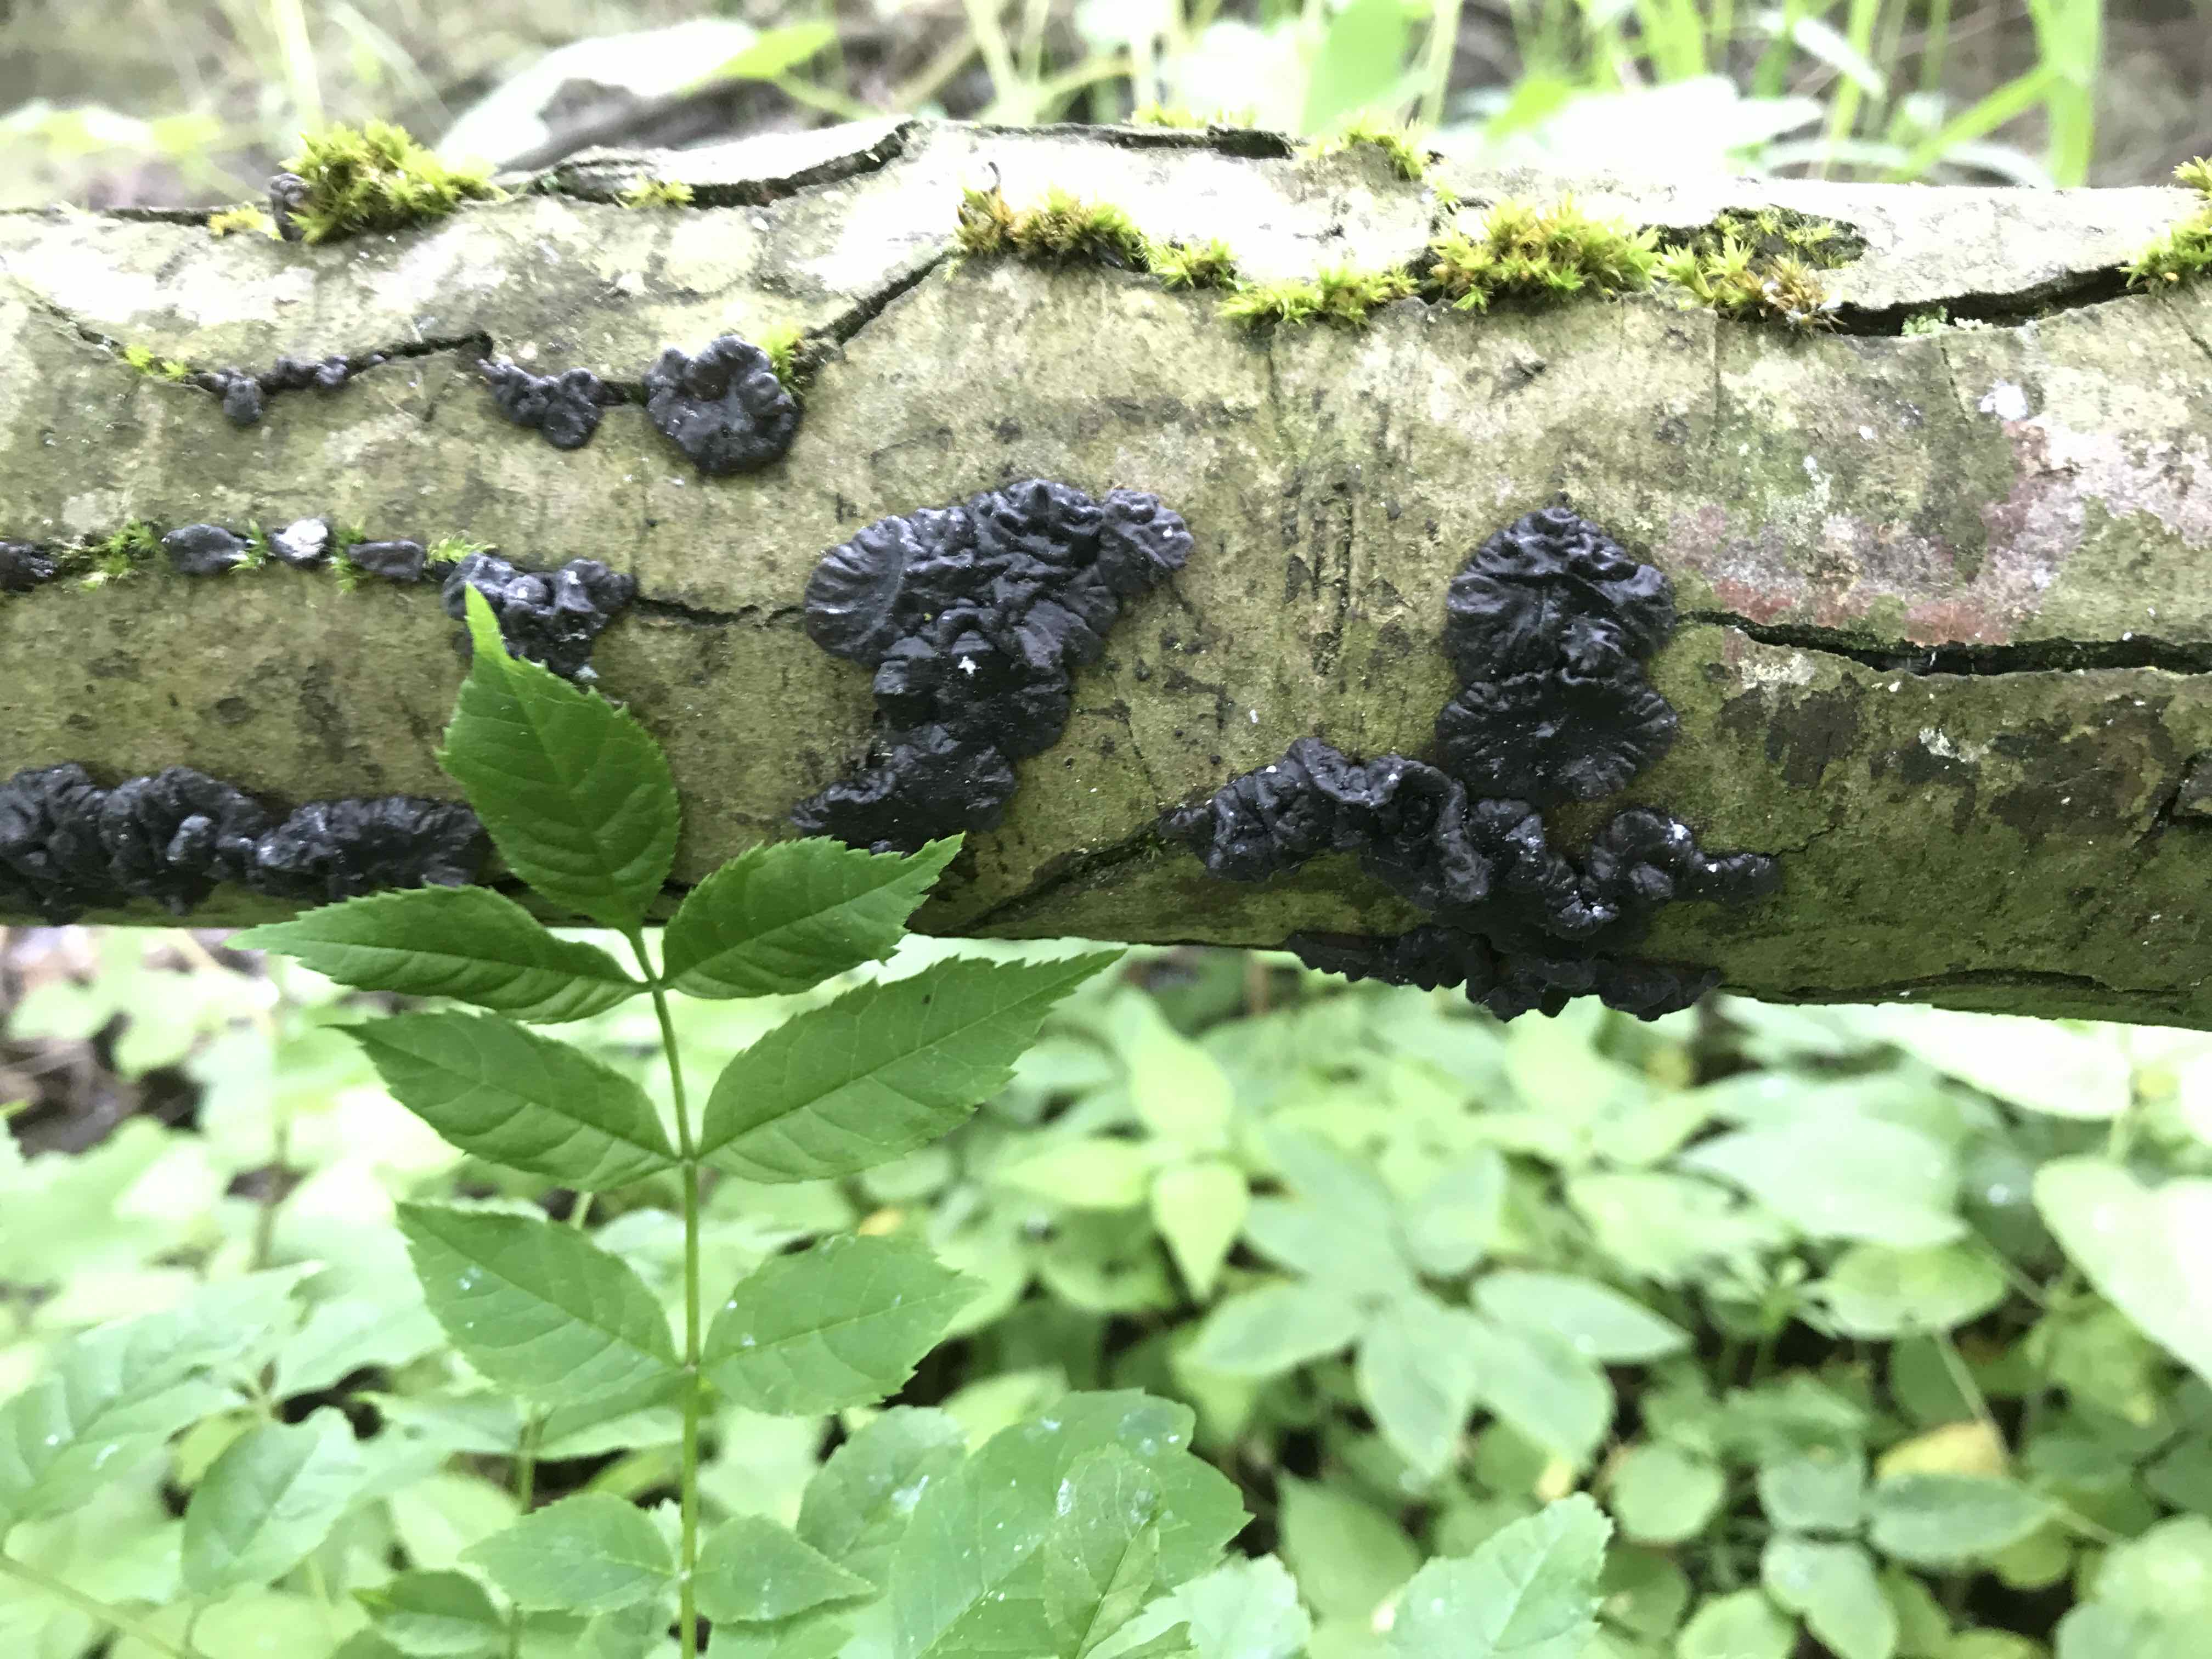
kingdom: Fungi
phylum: Basidiomycota
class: Agaricomycetes
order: Auriculariales
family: Auriculariaceae
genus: Exidia
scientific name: Exidia nigricans
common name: almindelig bævretop
